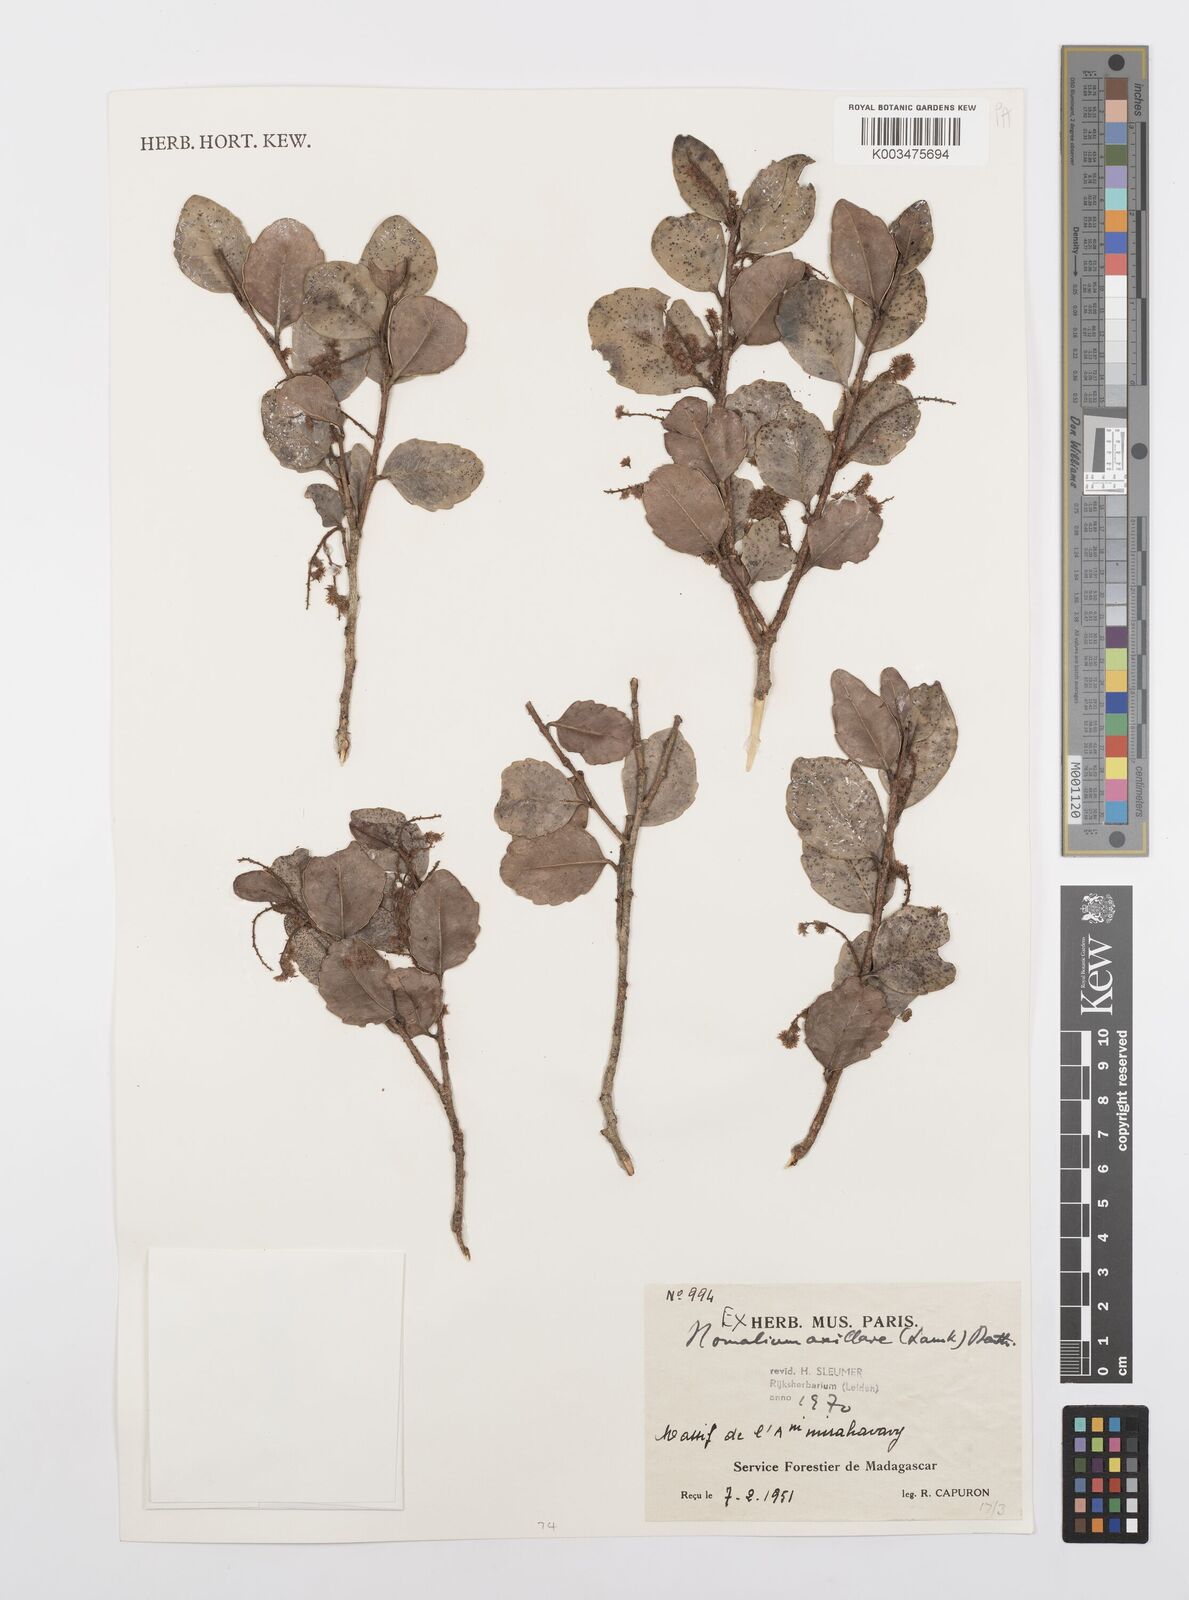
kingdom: Plantae
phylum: Tracheophyta
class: Magnoliopsida
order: Malpighiales
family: Salicaceae
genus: Homalium
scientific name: Homalium axillare
